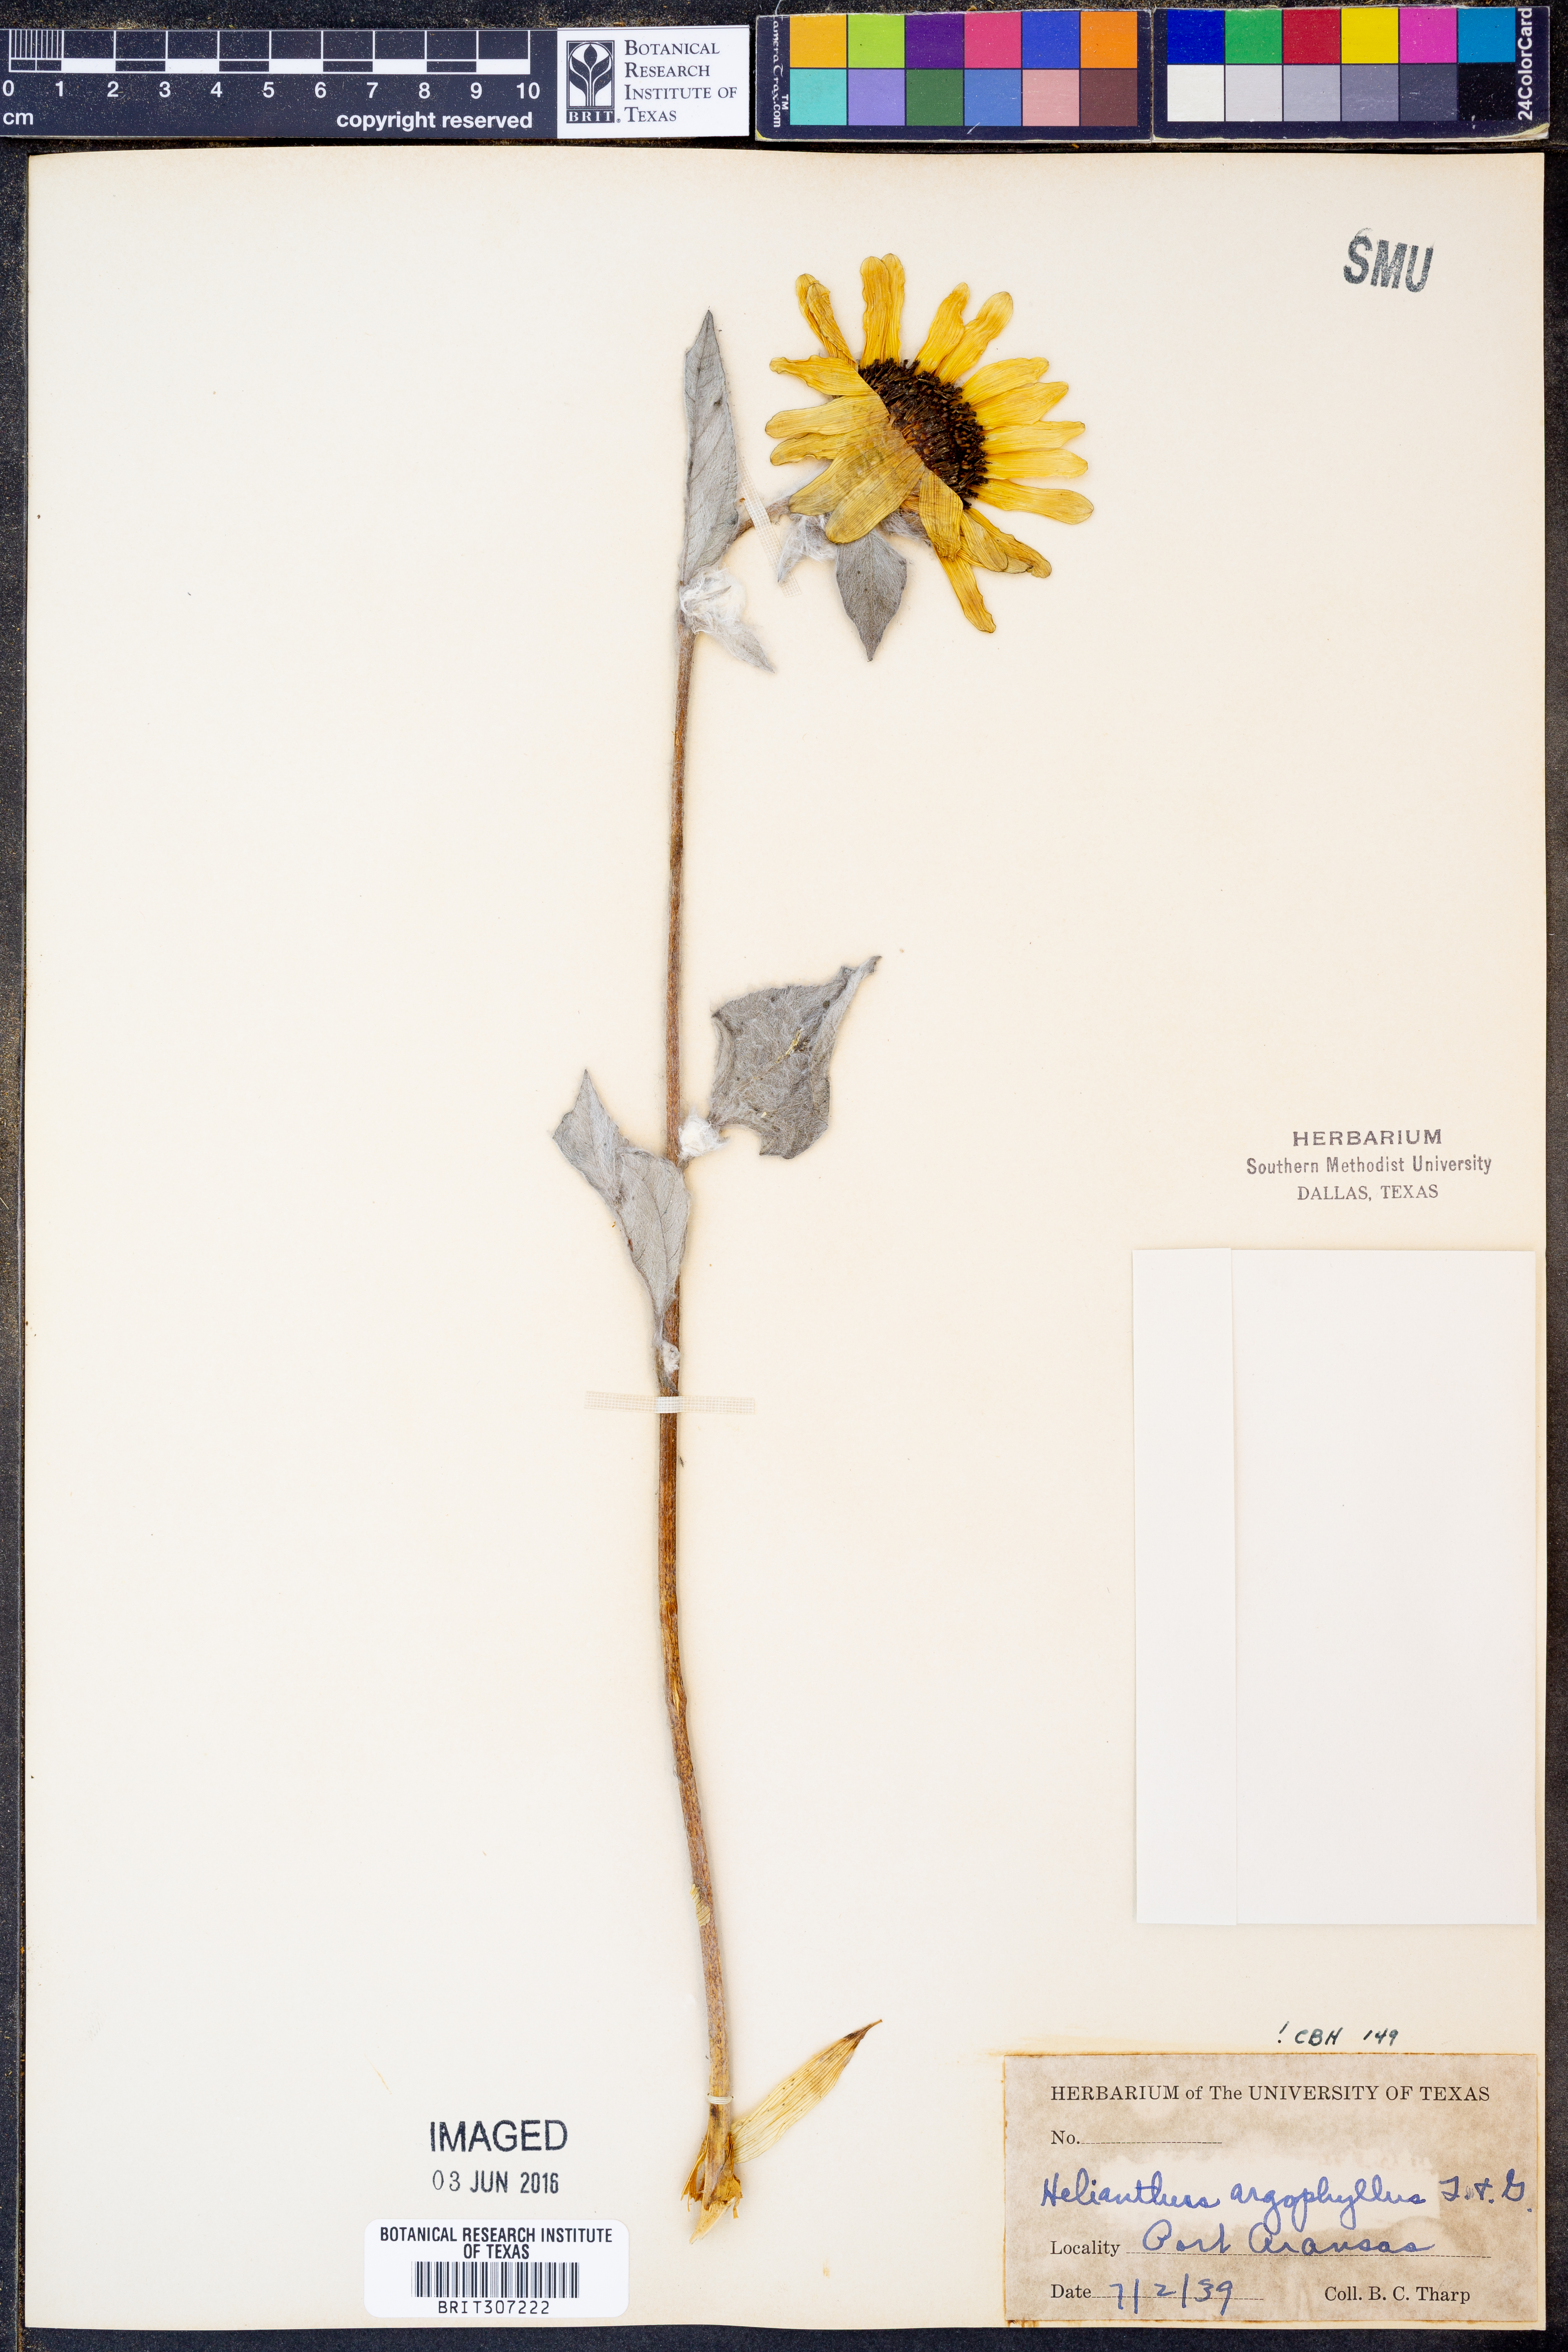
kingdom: Plantae
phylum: Tracheophyta
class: Magnoliopsida
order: Asterales
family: Asteraceae
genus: Helianthus
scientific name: Helianthus argophyllus
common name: Silverleaf sunflower
